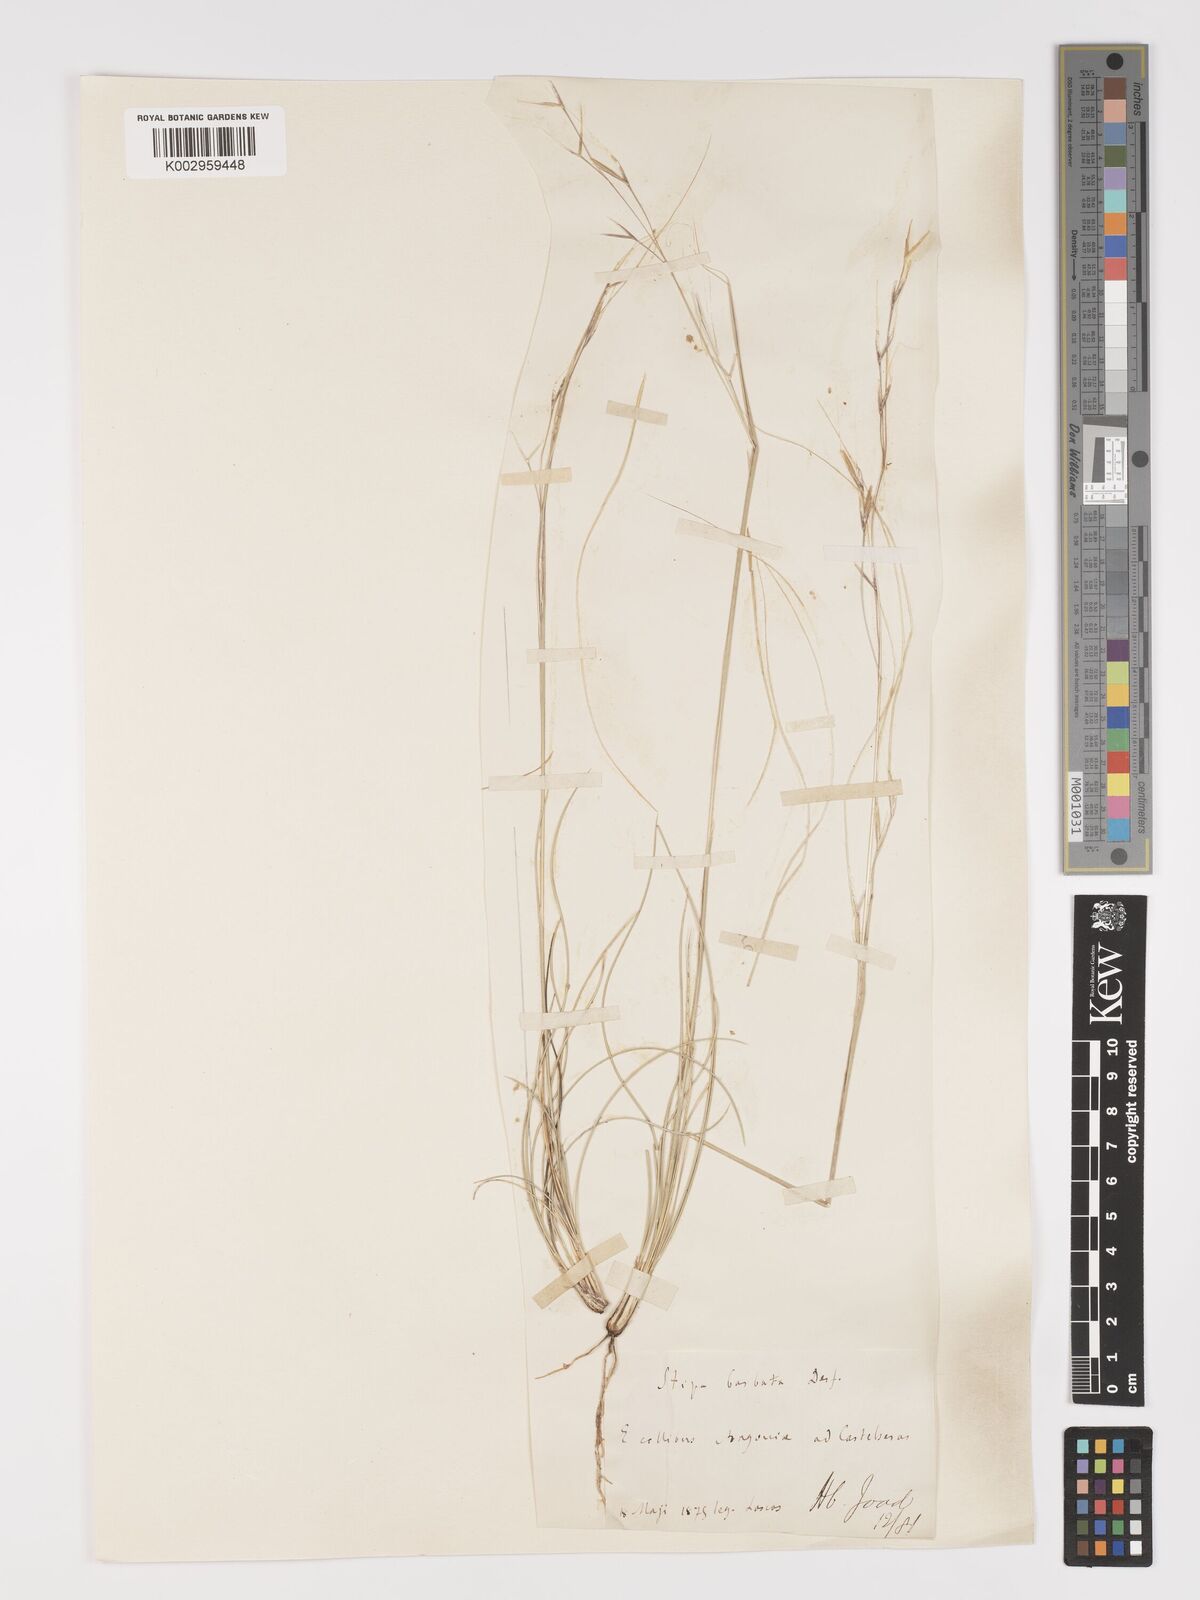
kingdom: Plantae
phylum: Tracheophyta
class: Liliopsida
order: Poales
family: Poaceae
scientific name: Poaceae
